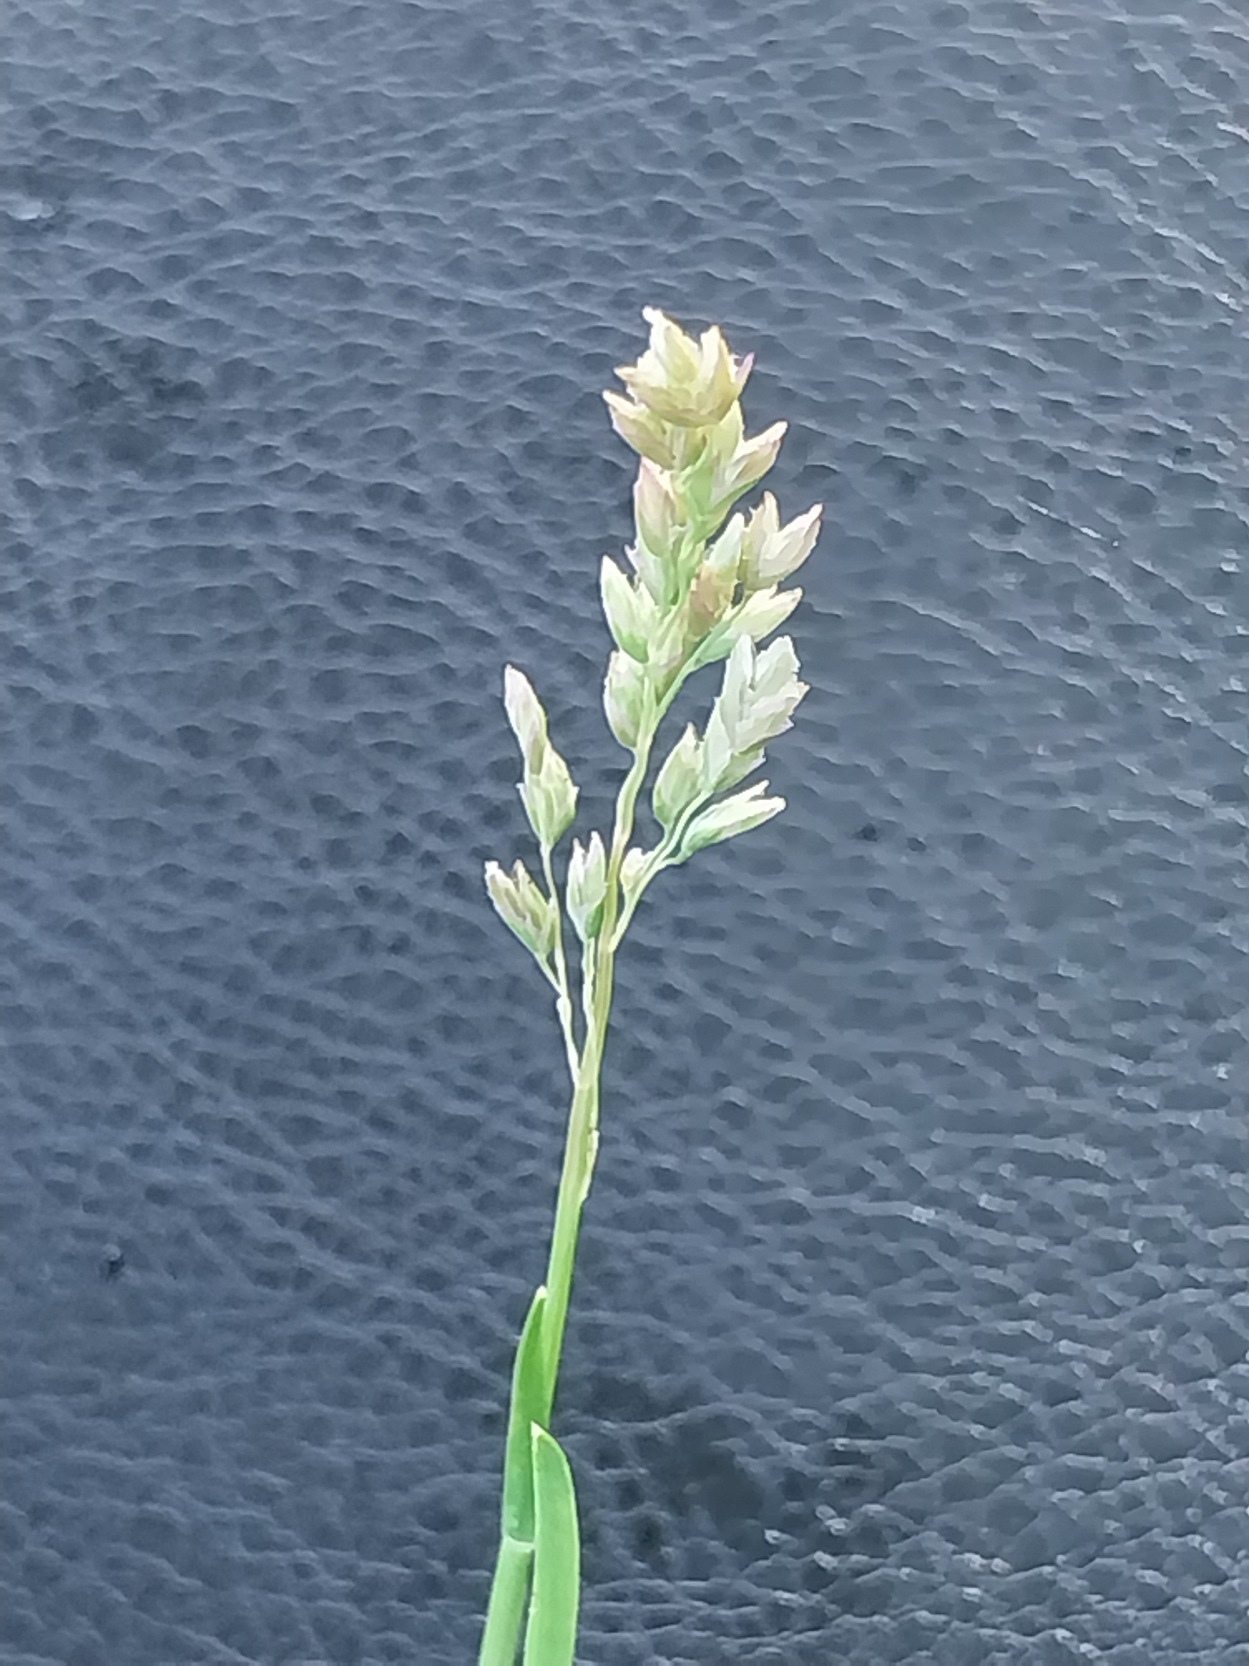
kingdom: Plantae
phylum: Tracheophyta
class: Liliopsida
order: Poales
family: Poaceae
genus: Poa
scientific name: Poa annua
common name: Enårig rapgræs
